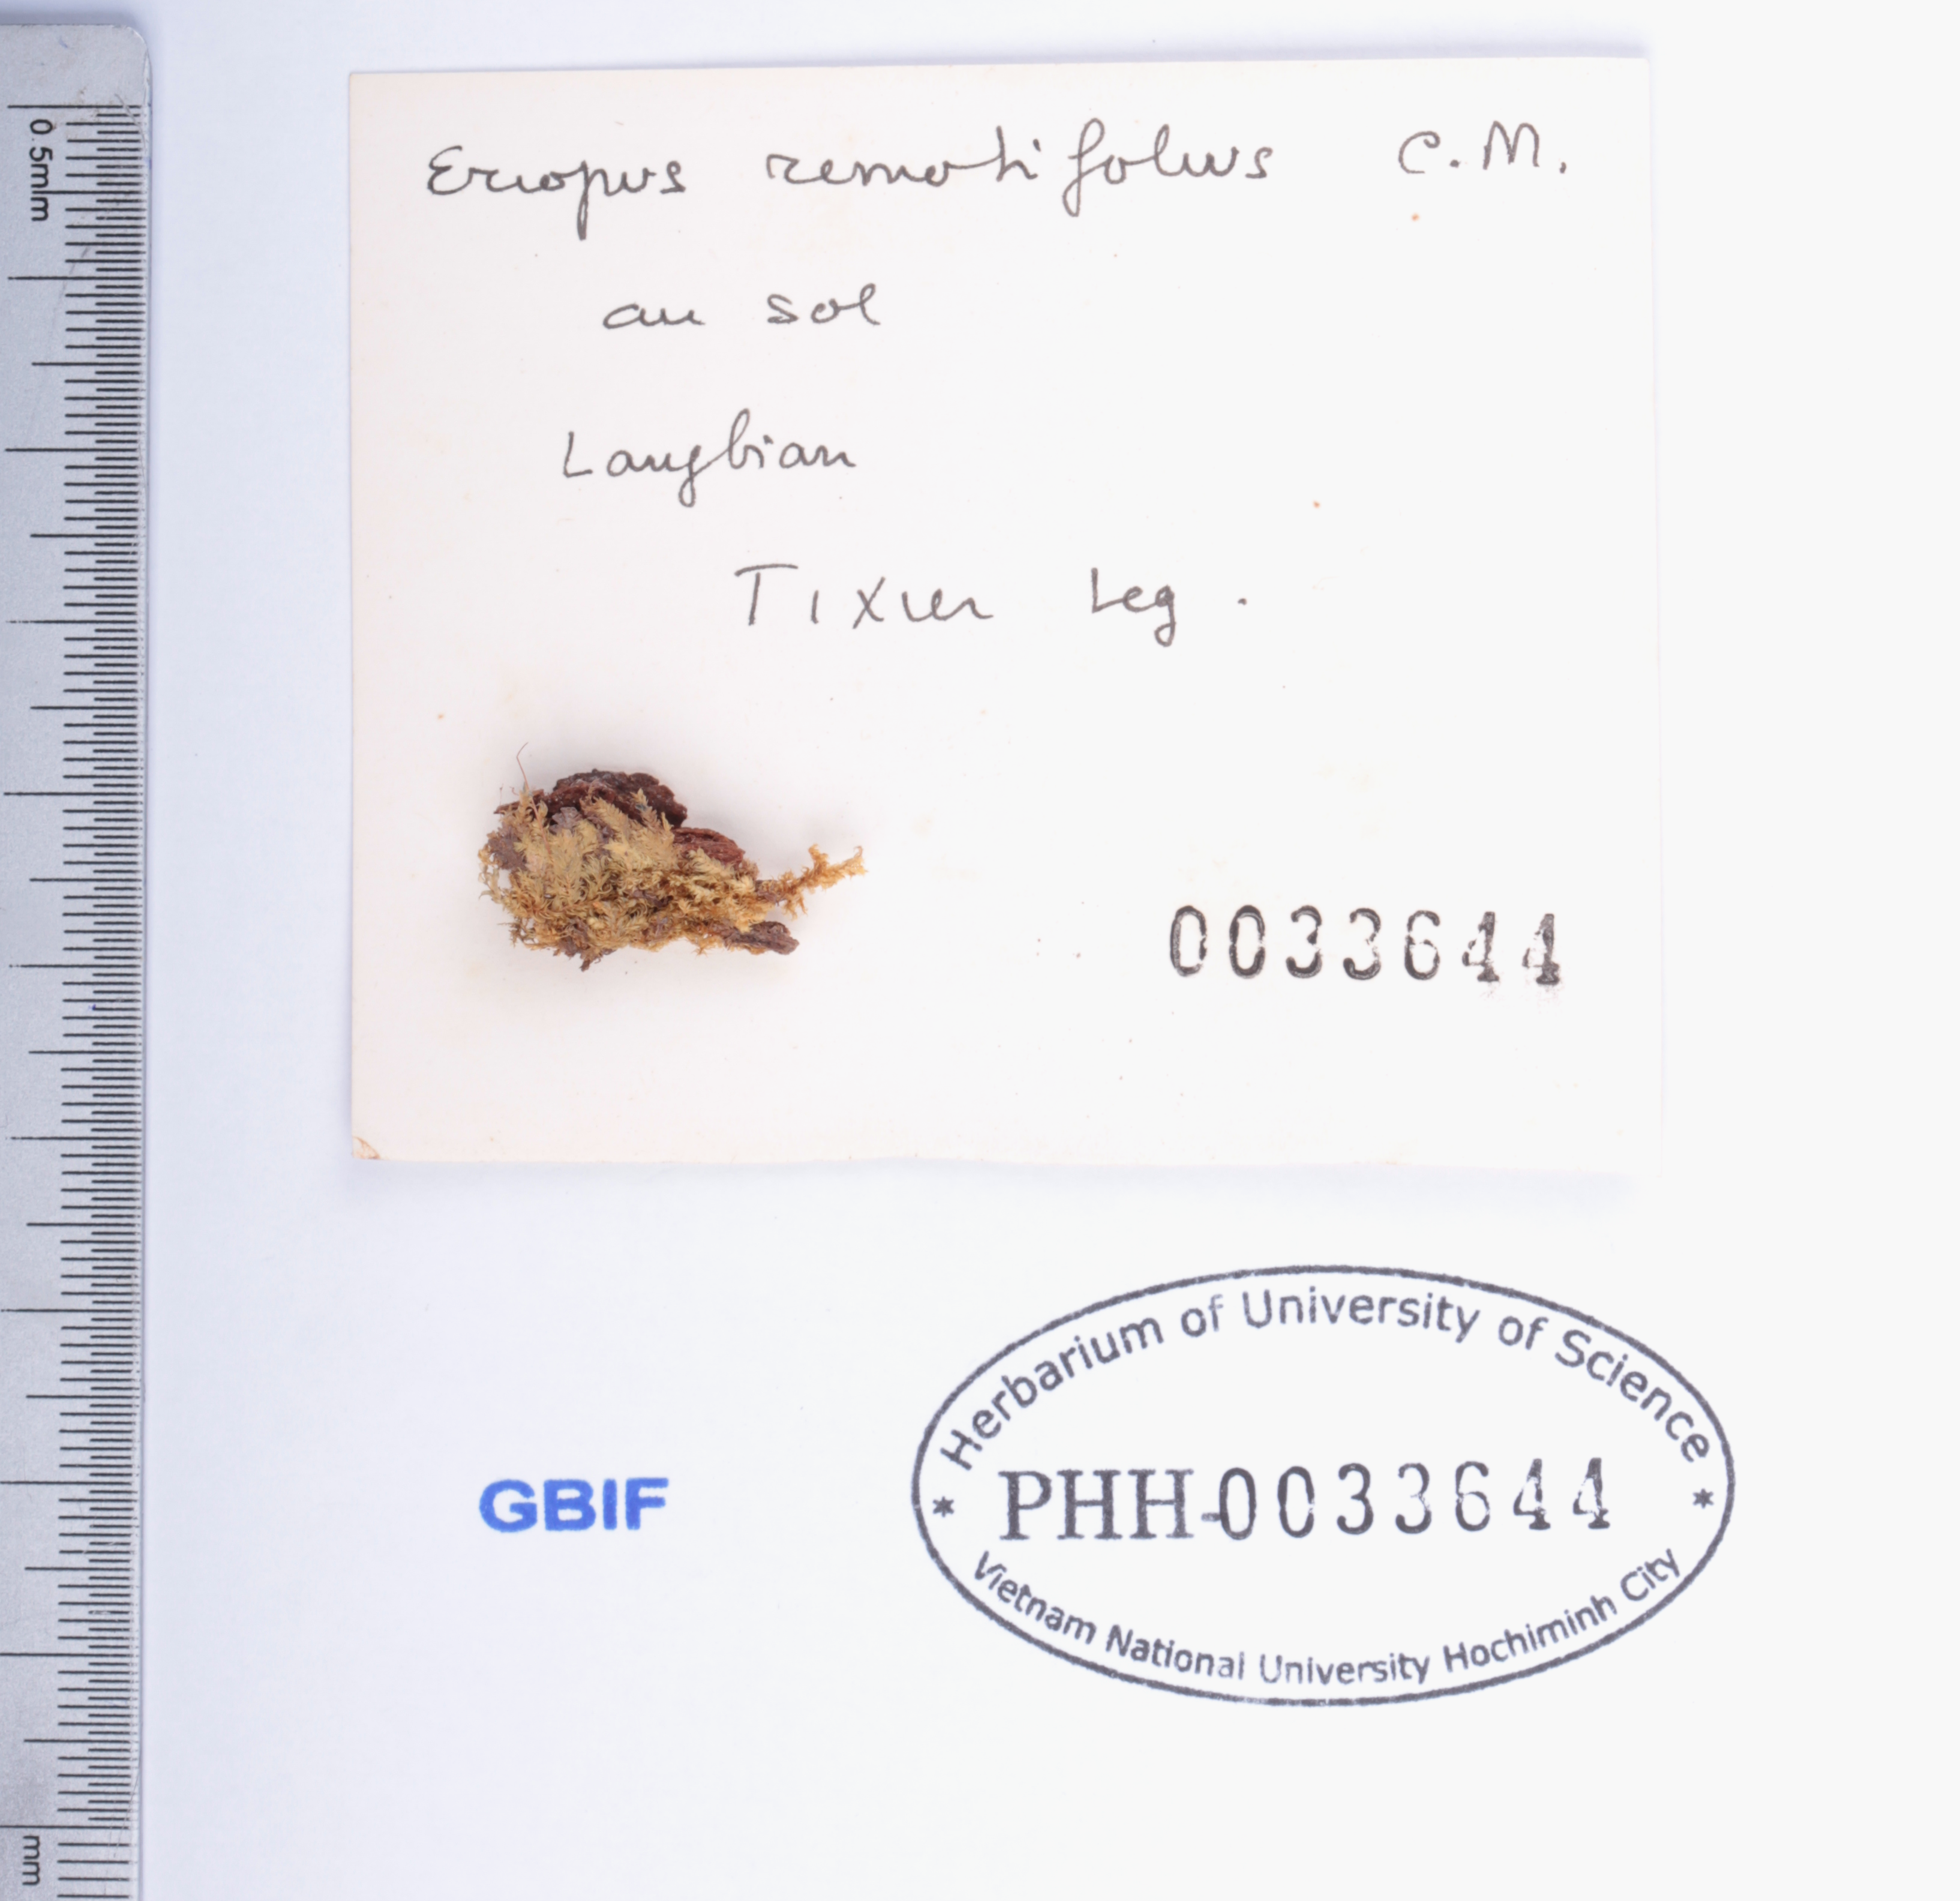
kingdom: Plantae
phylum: Bryophyta
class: Bryopsida
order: Hookeriales
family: Daltoniaceae
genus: Calyptrochaeta
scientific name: Calyptrochaeta remotifolia
